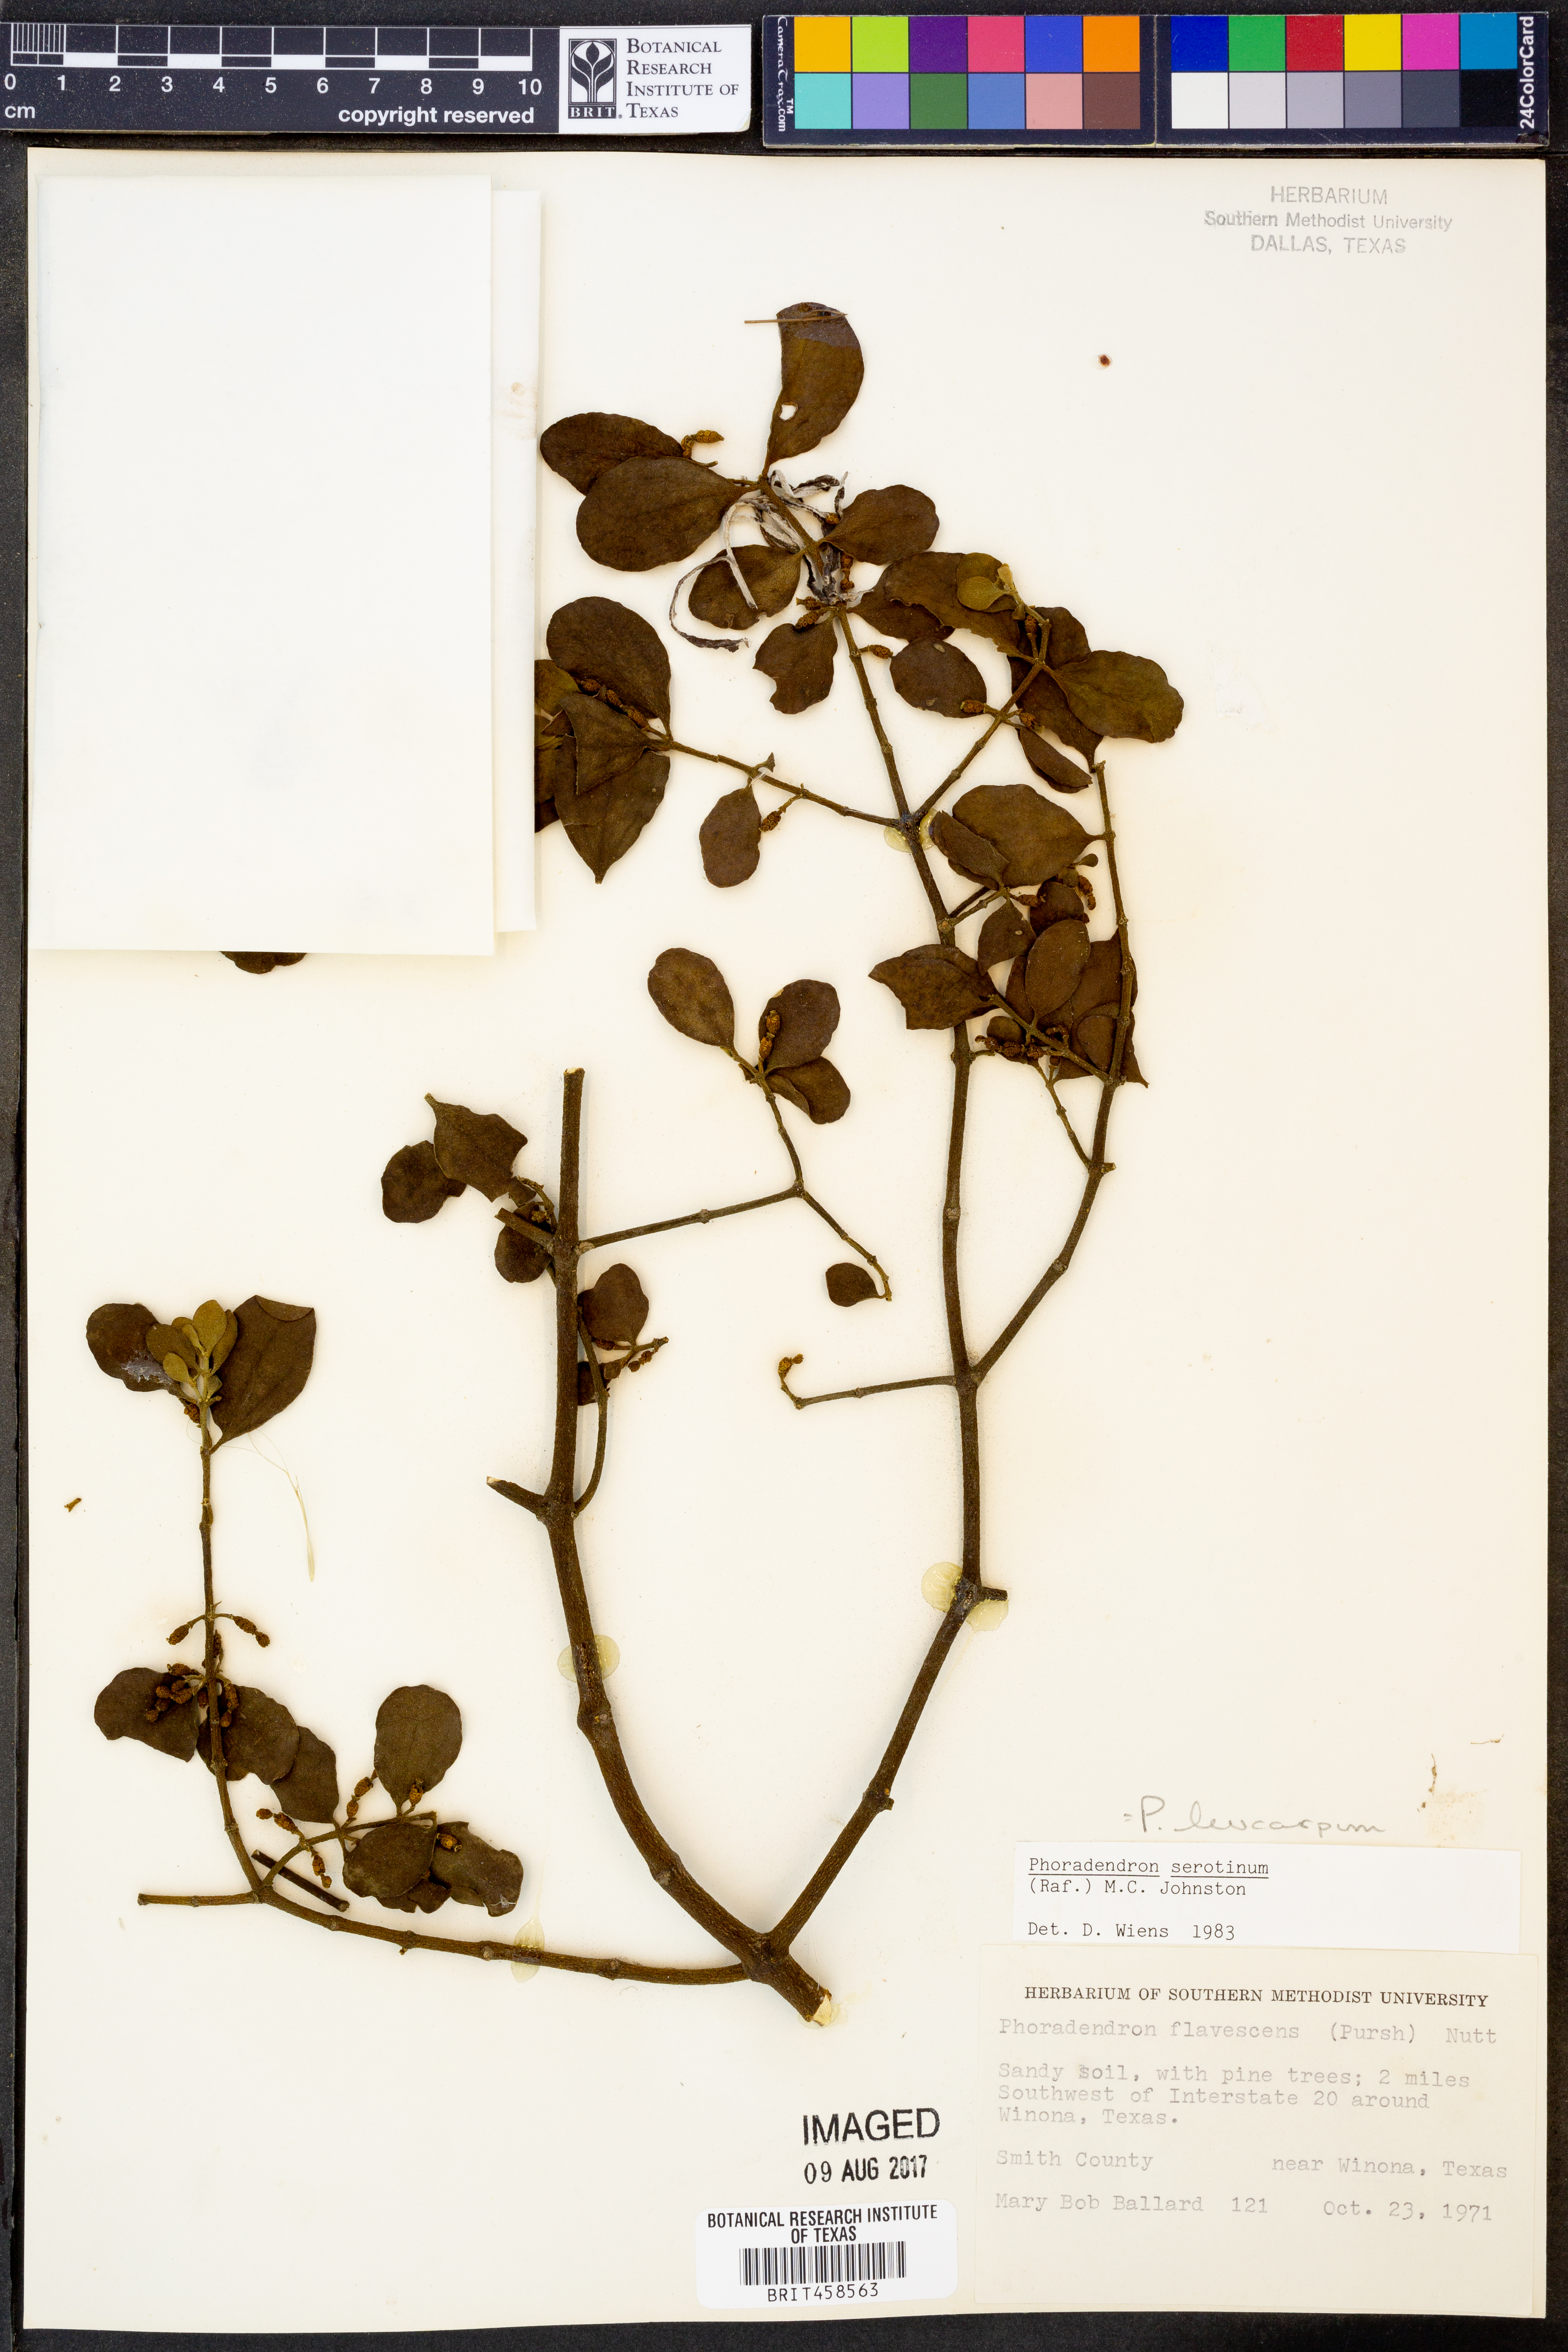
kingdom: Plantae
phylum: Tracheophyta
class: Magnoliopsida
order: Santalales
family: Viscaceae
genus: Phoradendron
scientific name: Phoradendron leucarpum
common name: Pacific mistletoe
